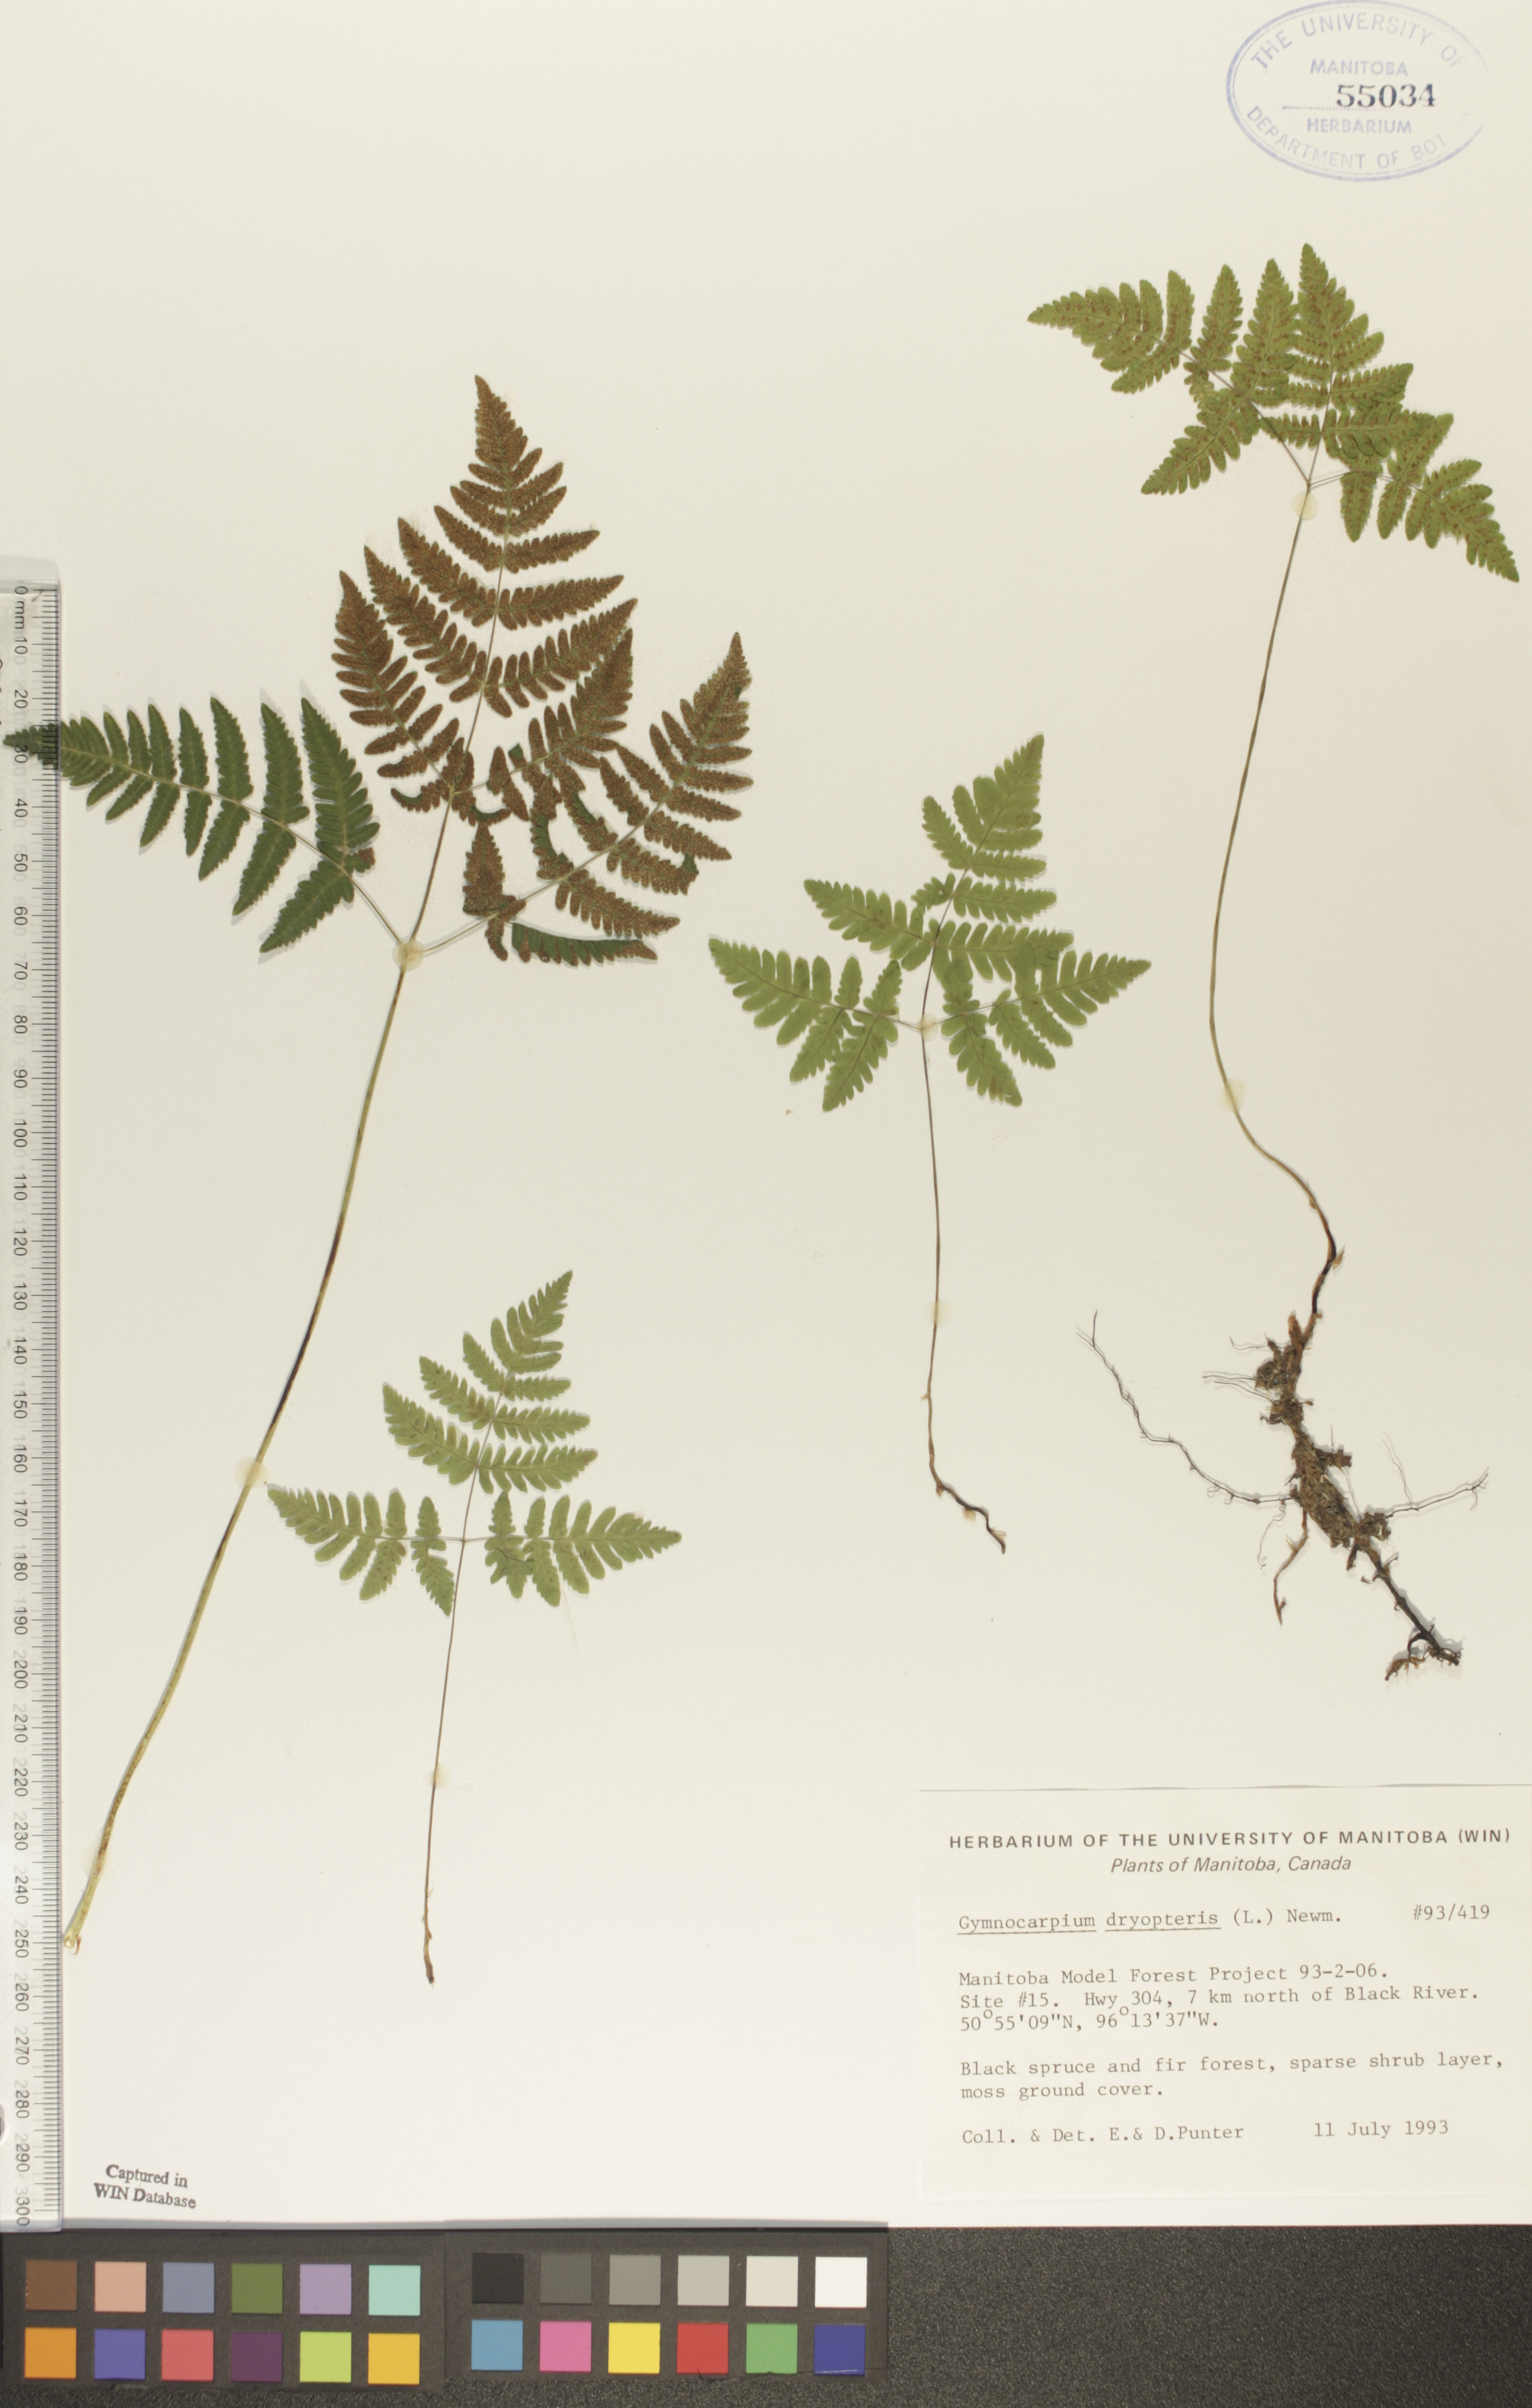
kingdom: Plantae
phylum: Tracheophyta
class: Polypodiopsida
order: Polypodiales
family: Cystopteridaceae
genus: Gymnocarpium
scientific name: Gymnocarpium dryopteris
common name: Oak fern
